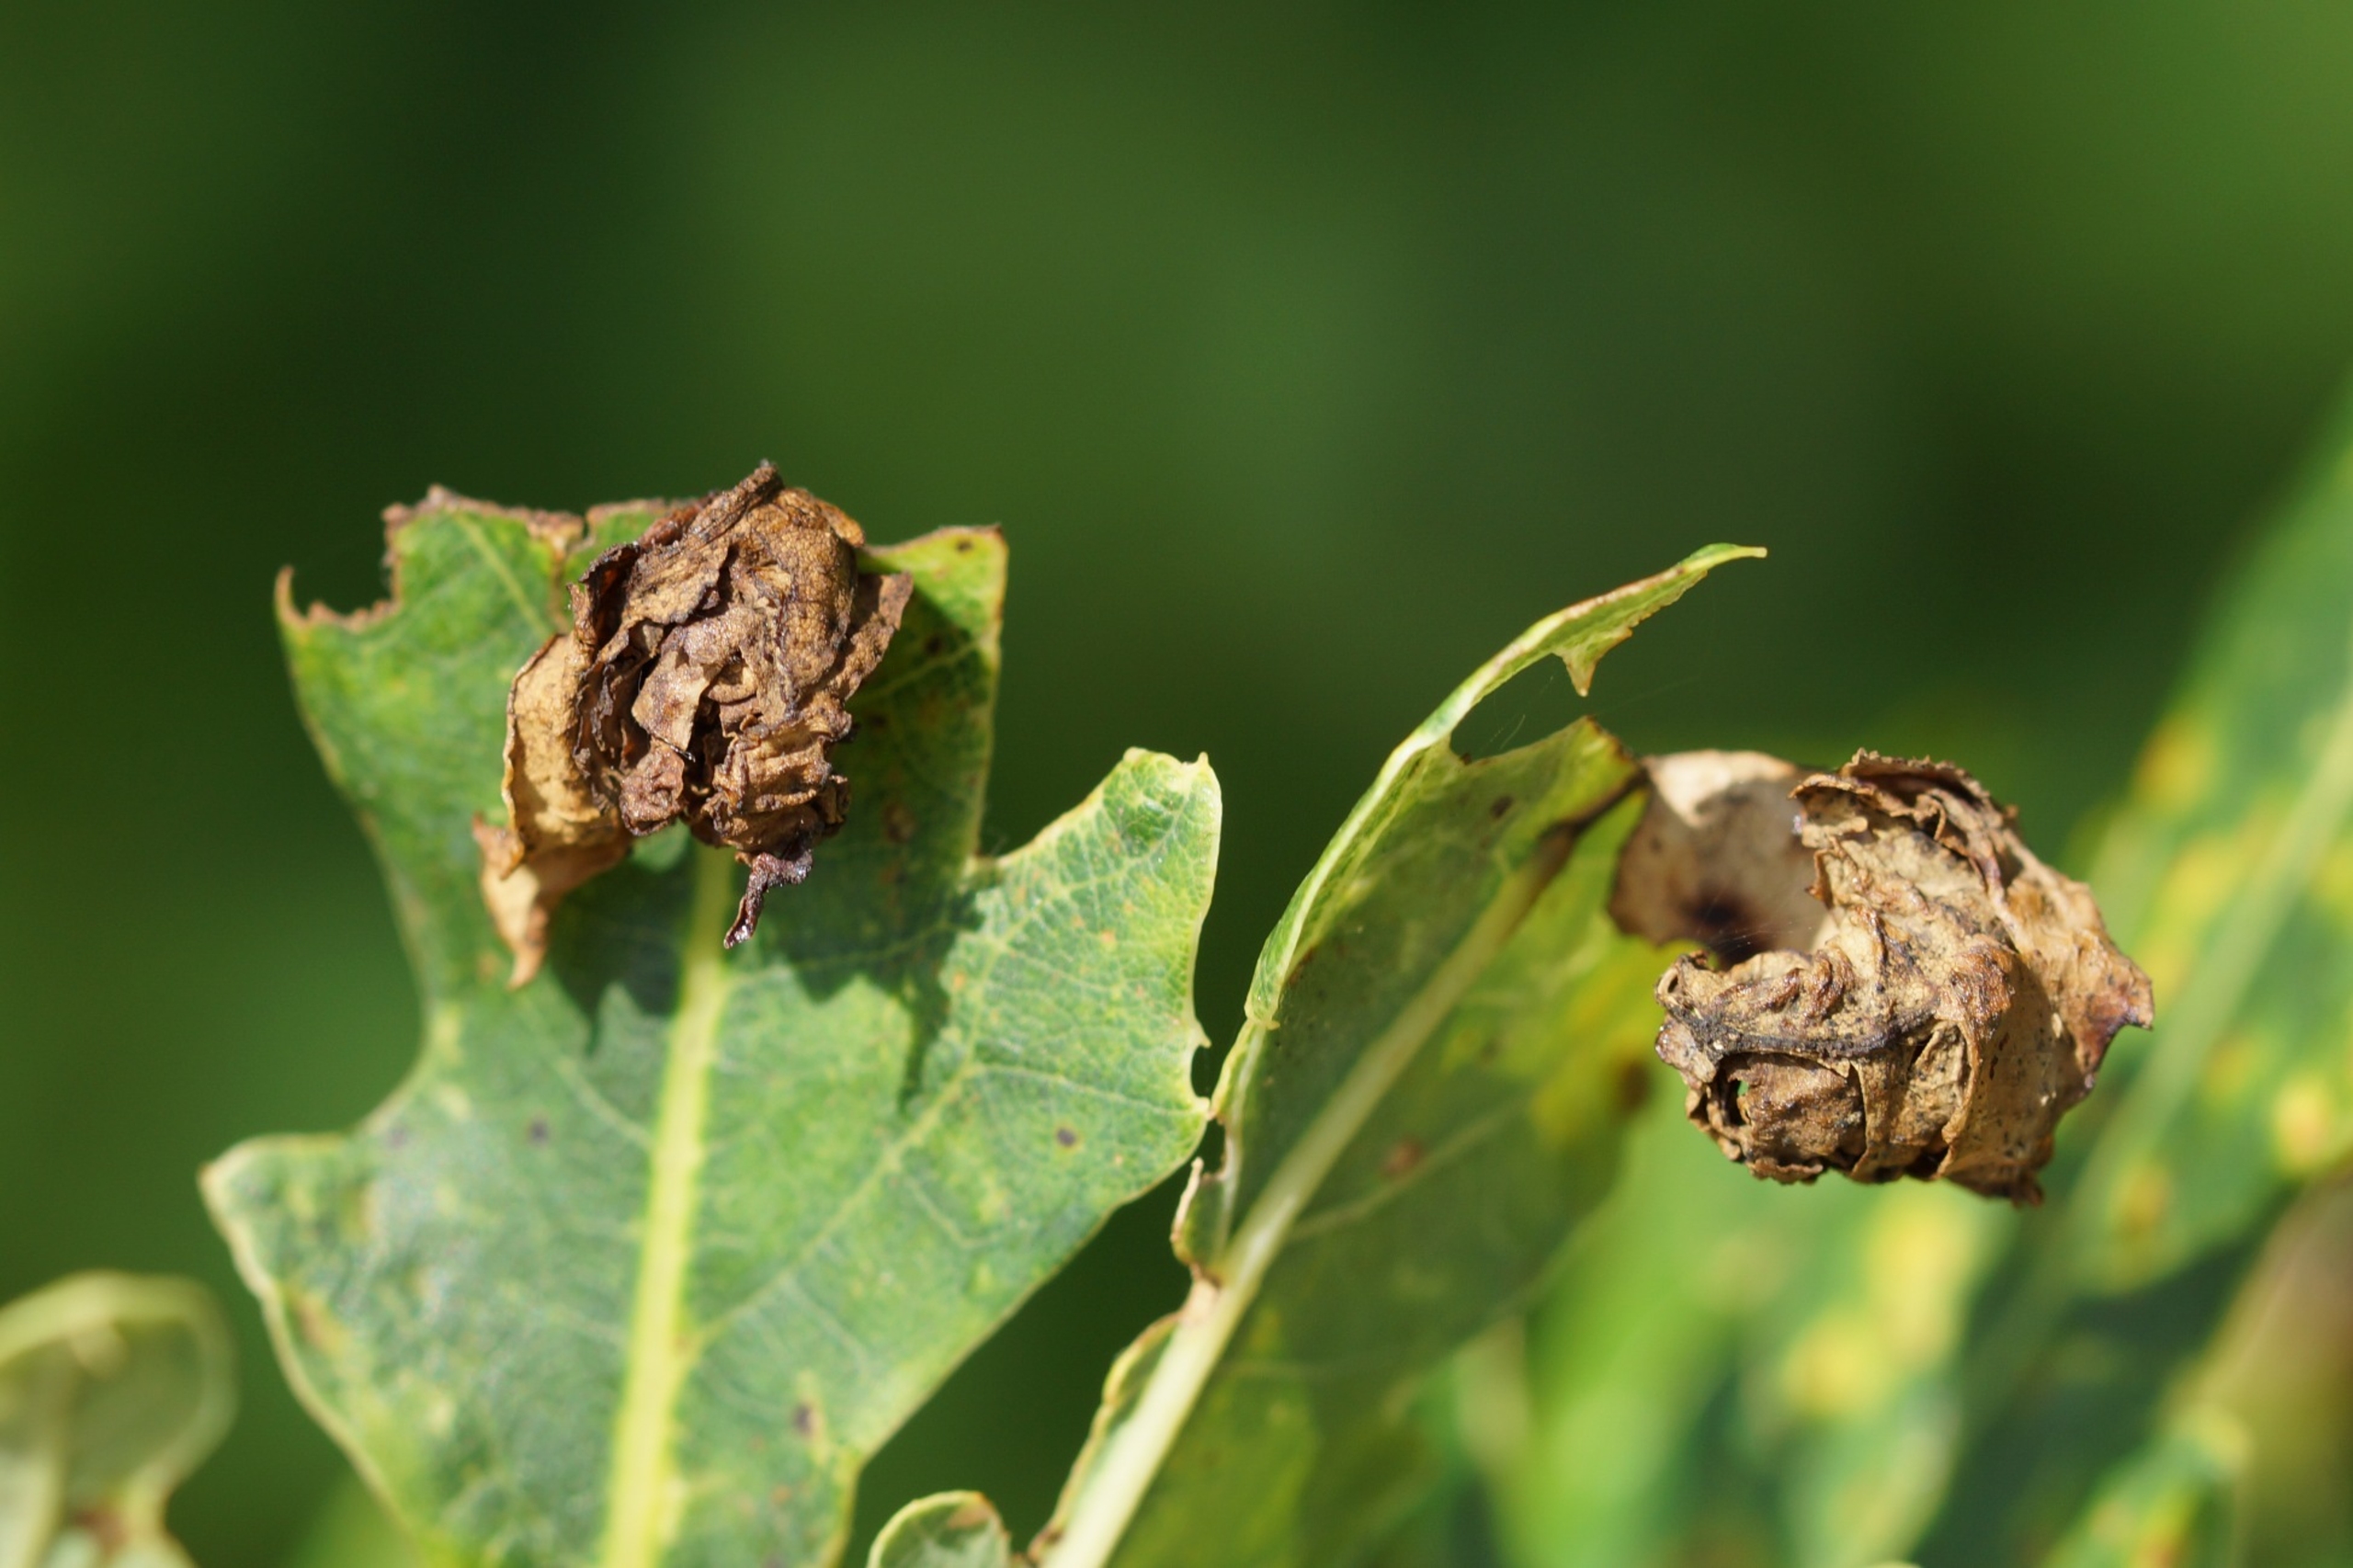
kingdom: Animalia
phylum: Arthropoda
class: Insecta
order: Coleoptera
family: Attelabidae
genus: Attelabus
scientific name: Attelabus nitens
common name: Egebladruller
